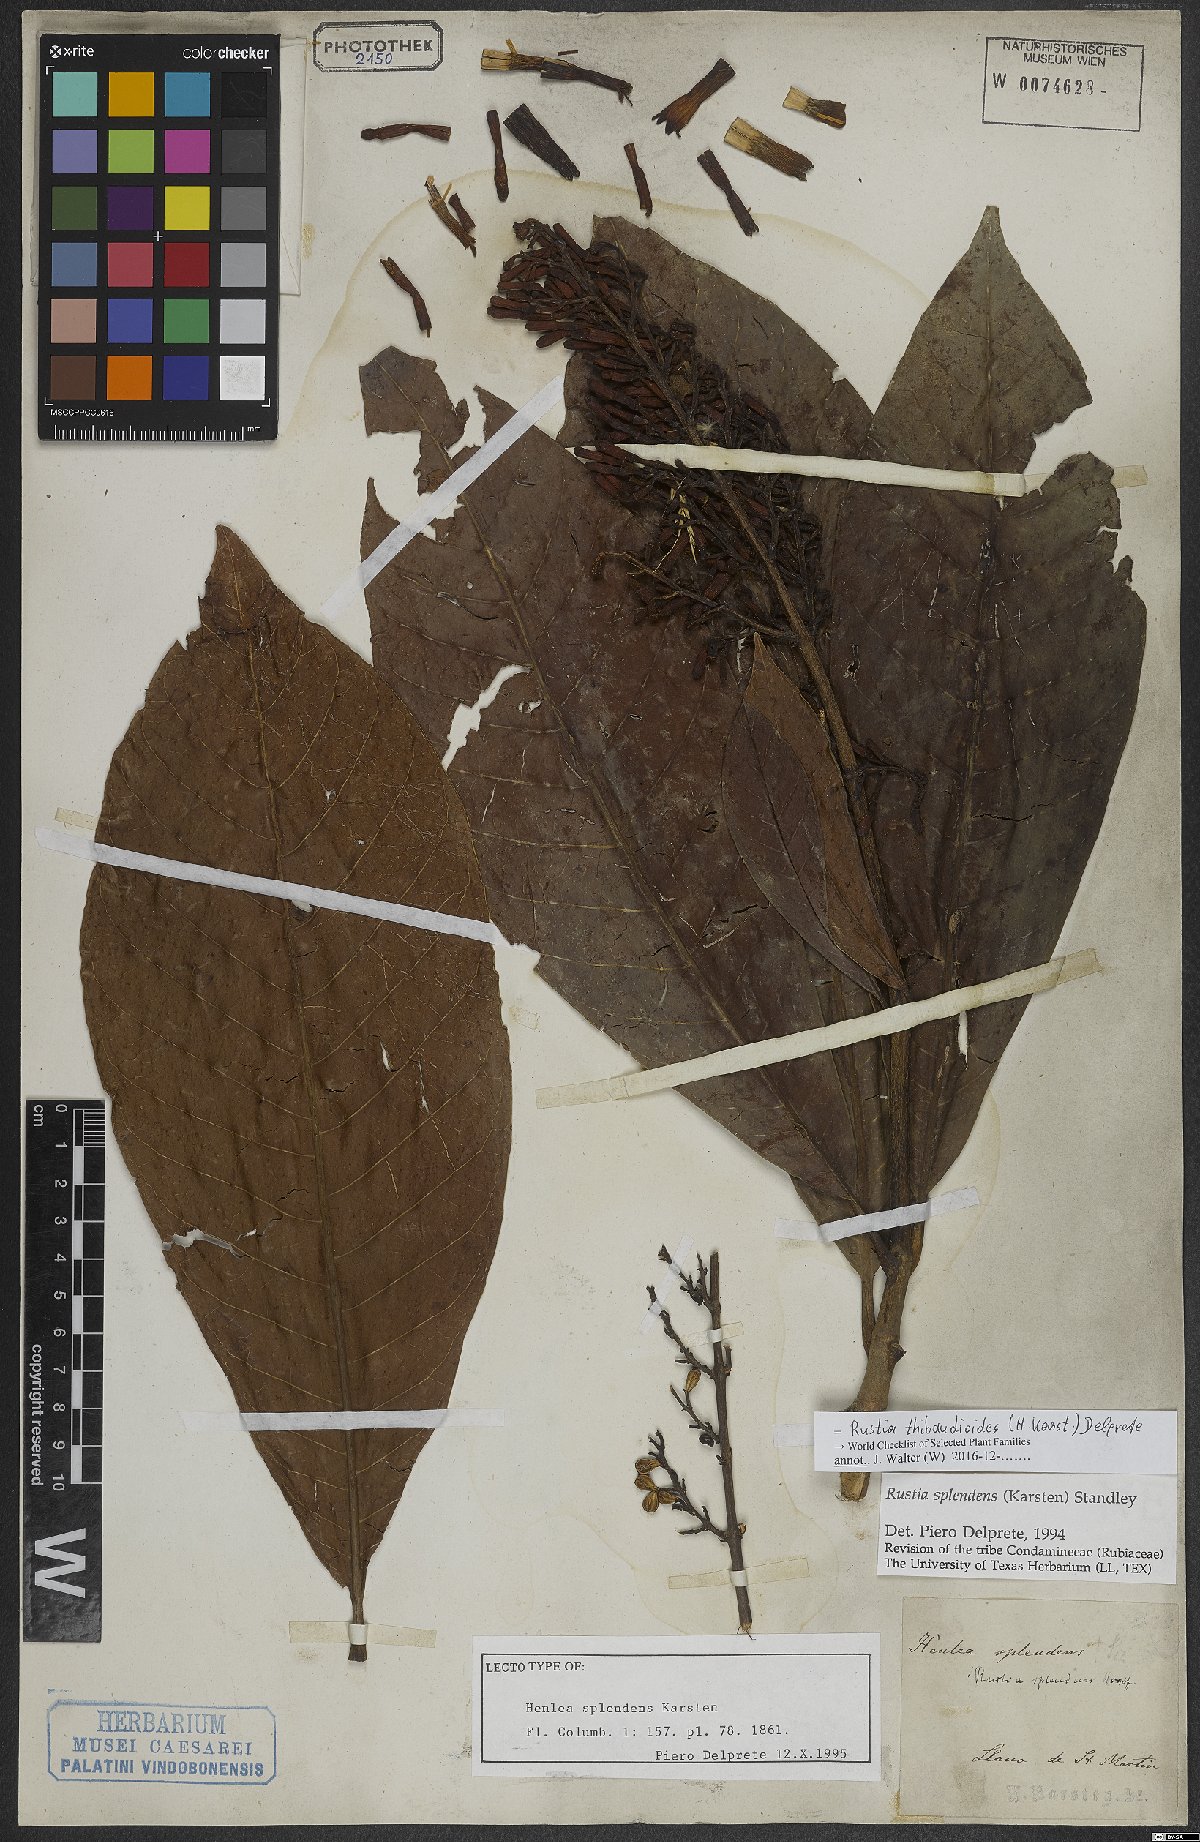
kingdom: Plantae
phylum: Tracheophyta
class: Magnoliopsida
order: Gentianales
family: Rubiaceae
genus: Rustia
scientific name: Rustia thibaudioides
